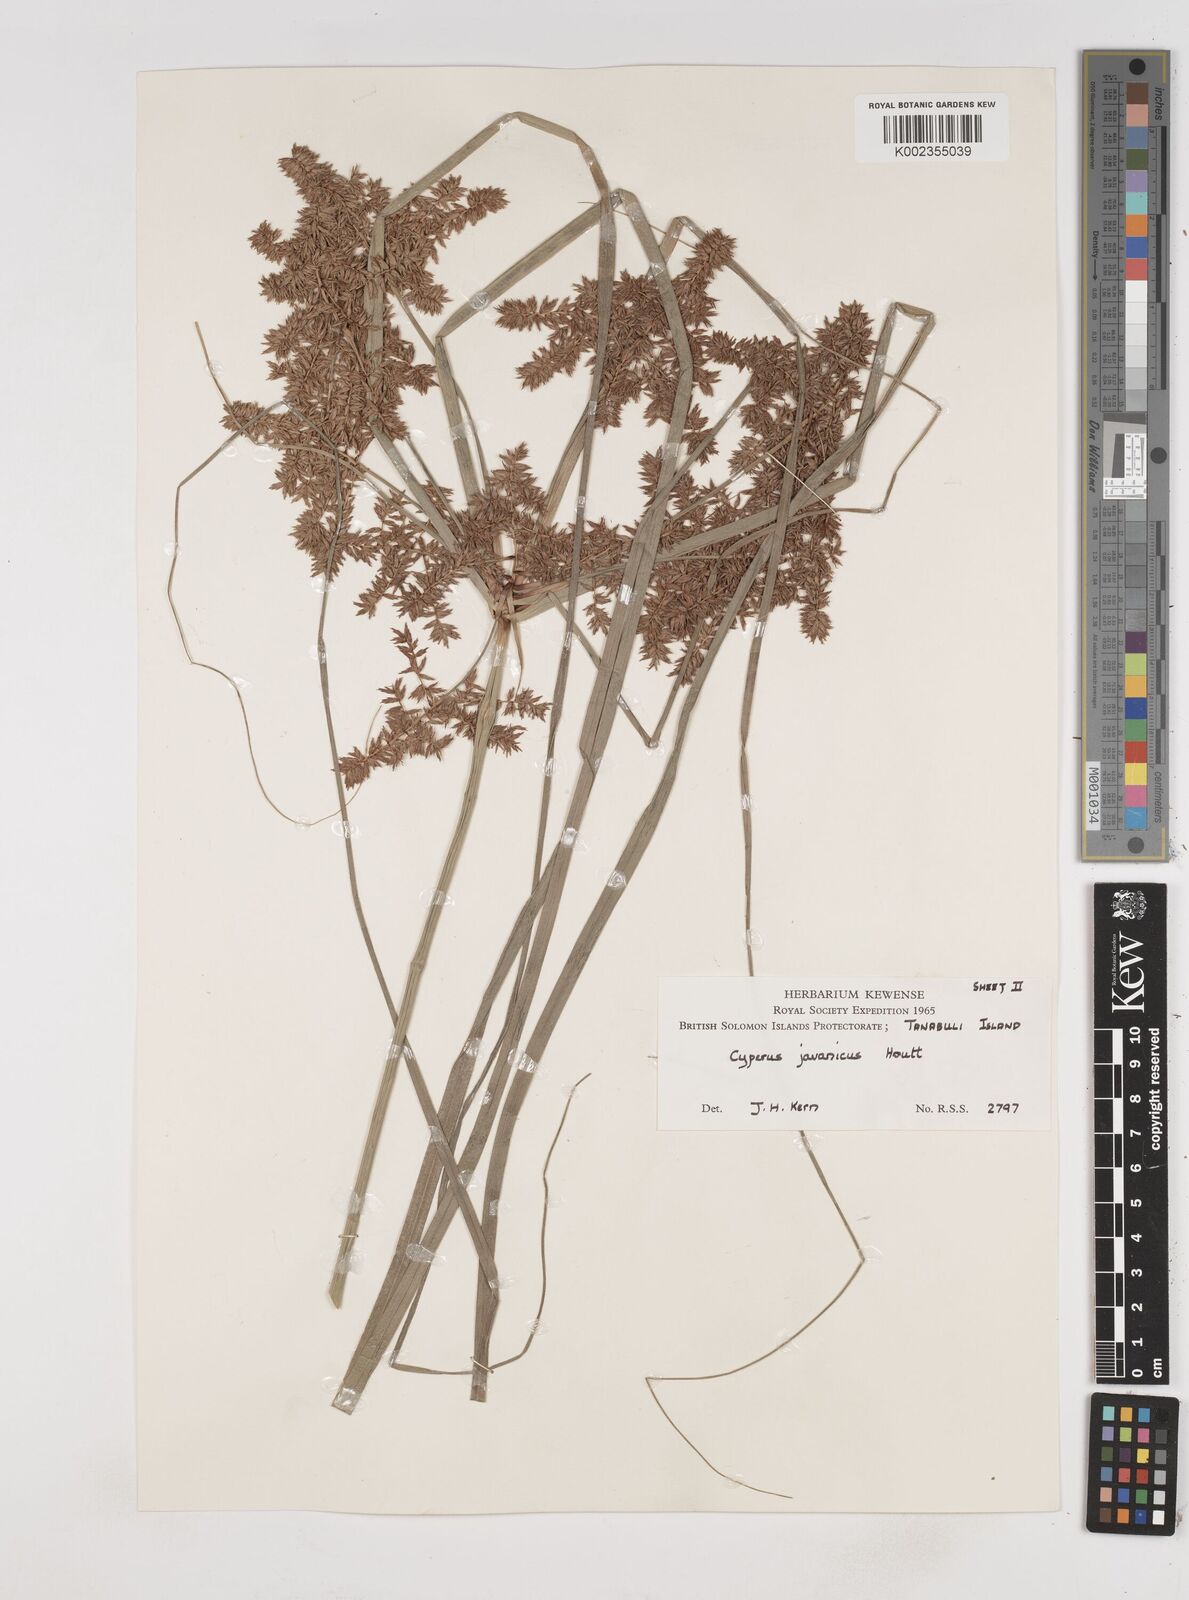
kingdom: Plantae
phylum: Tracheophyta
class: Liliopsida
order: Poales
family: Cyperaceae
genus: Cyperus
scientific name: Cyperus javanicus
